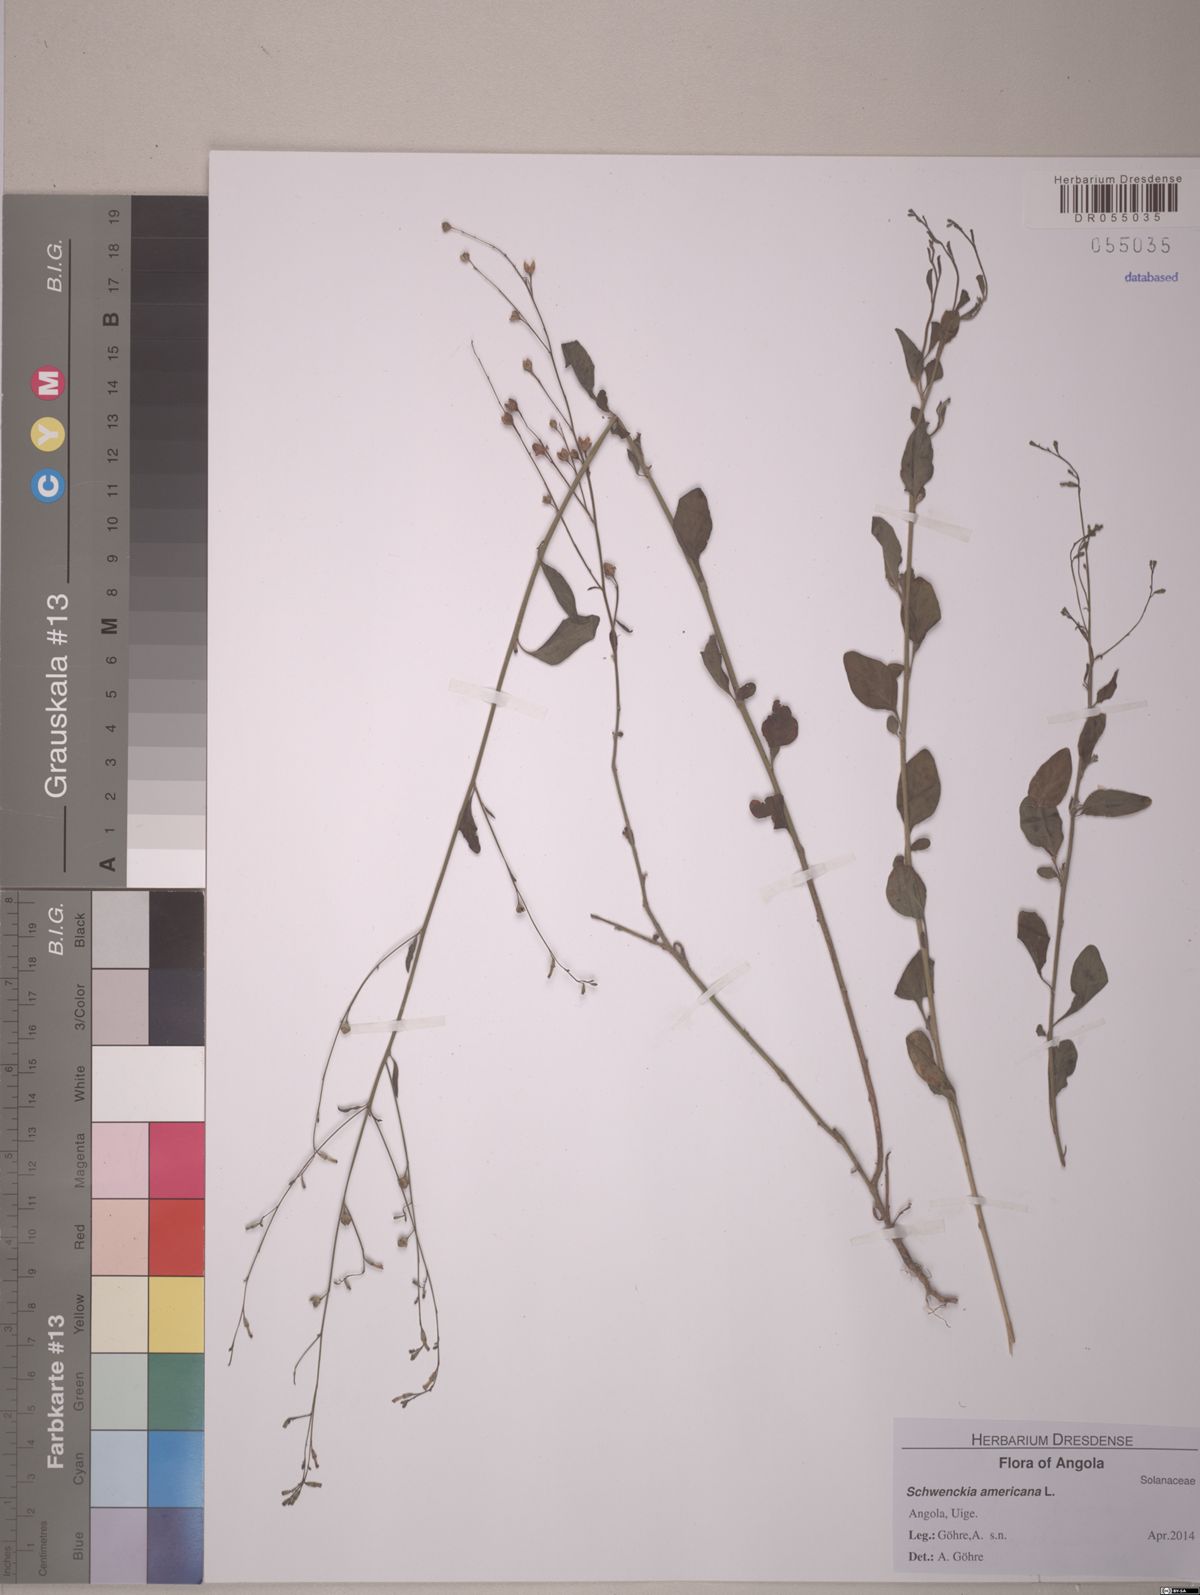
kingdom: Plantae
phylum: Tracheophyta
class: Magnoliopsida
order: Solanales
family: Solanaceae
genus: Schwenckia
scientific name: Schwenckia americana
